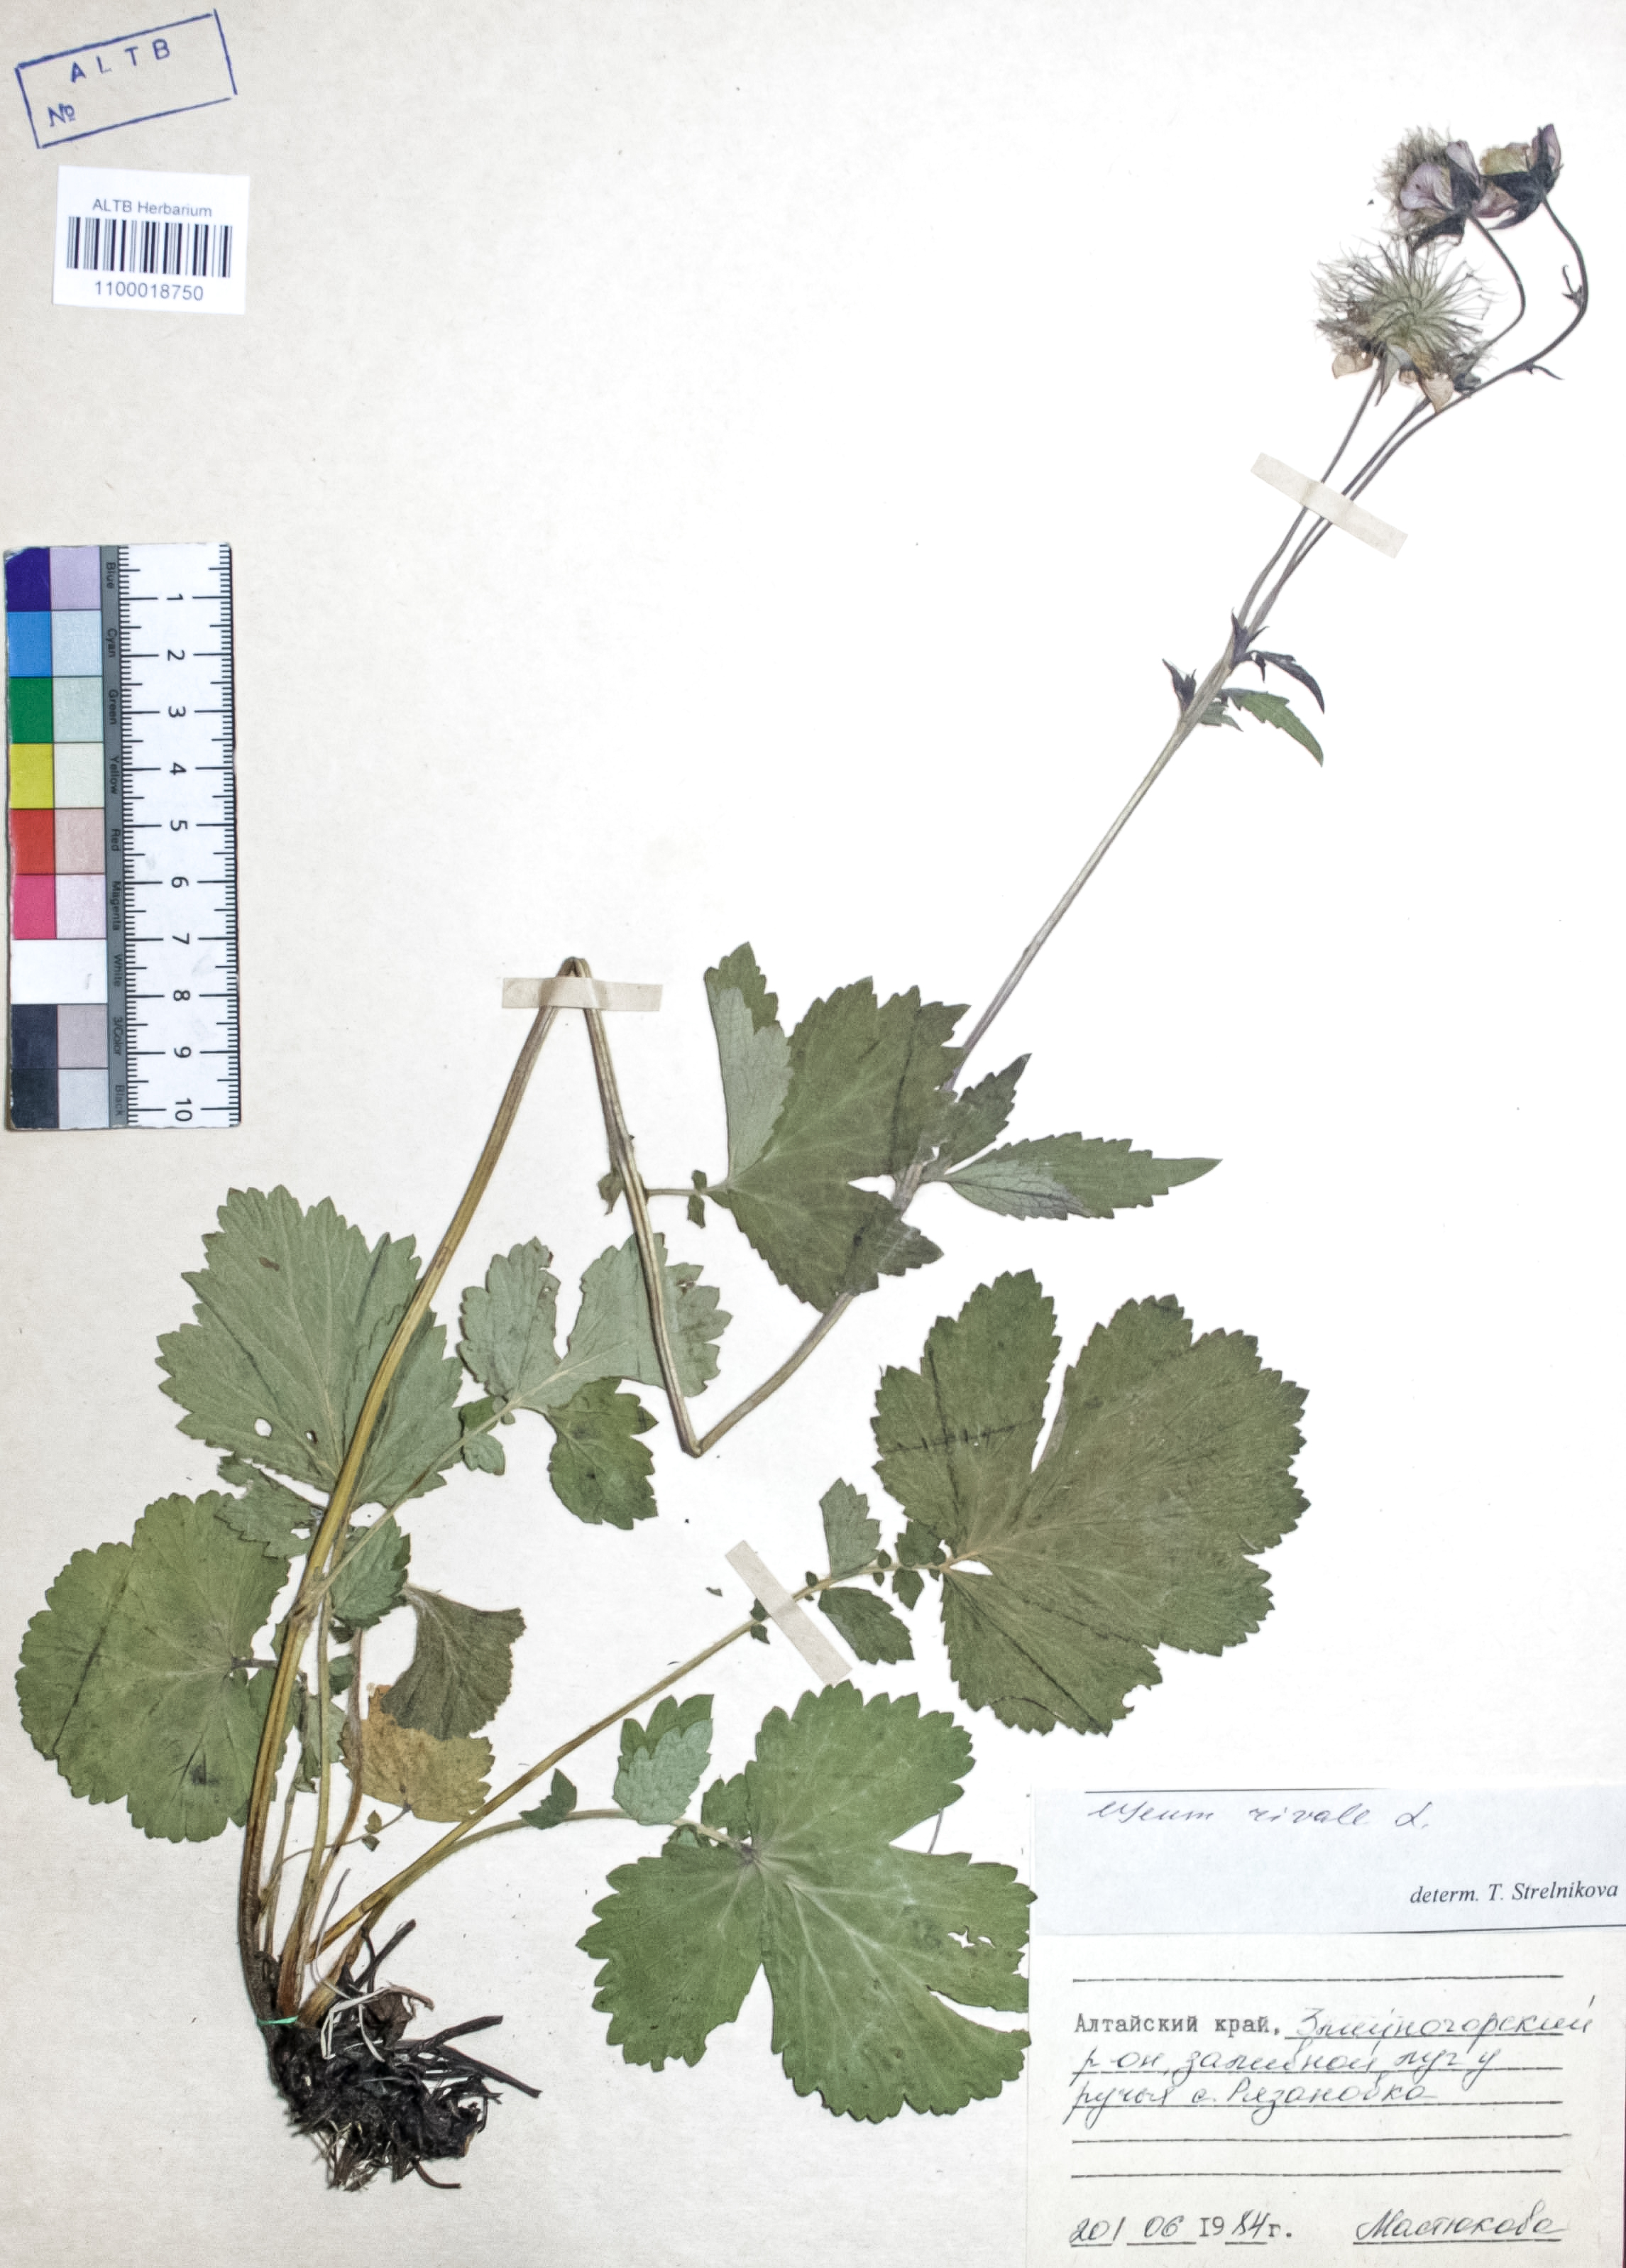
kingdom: Plantae
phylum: Tracheophyta
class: Magnoliopsida
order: Rosales
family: Rosaceae
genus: Geum
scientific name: Geum rivale
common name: Water avens
